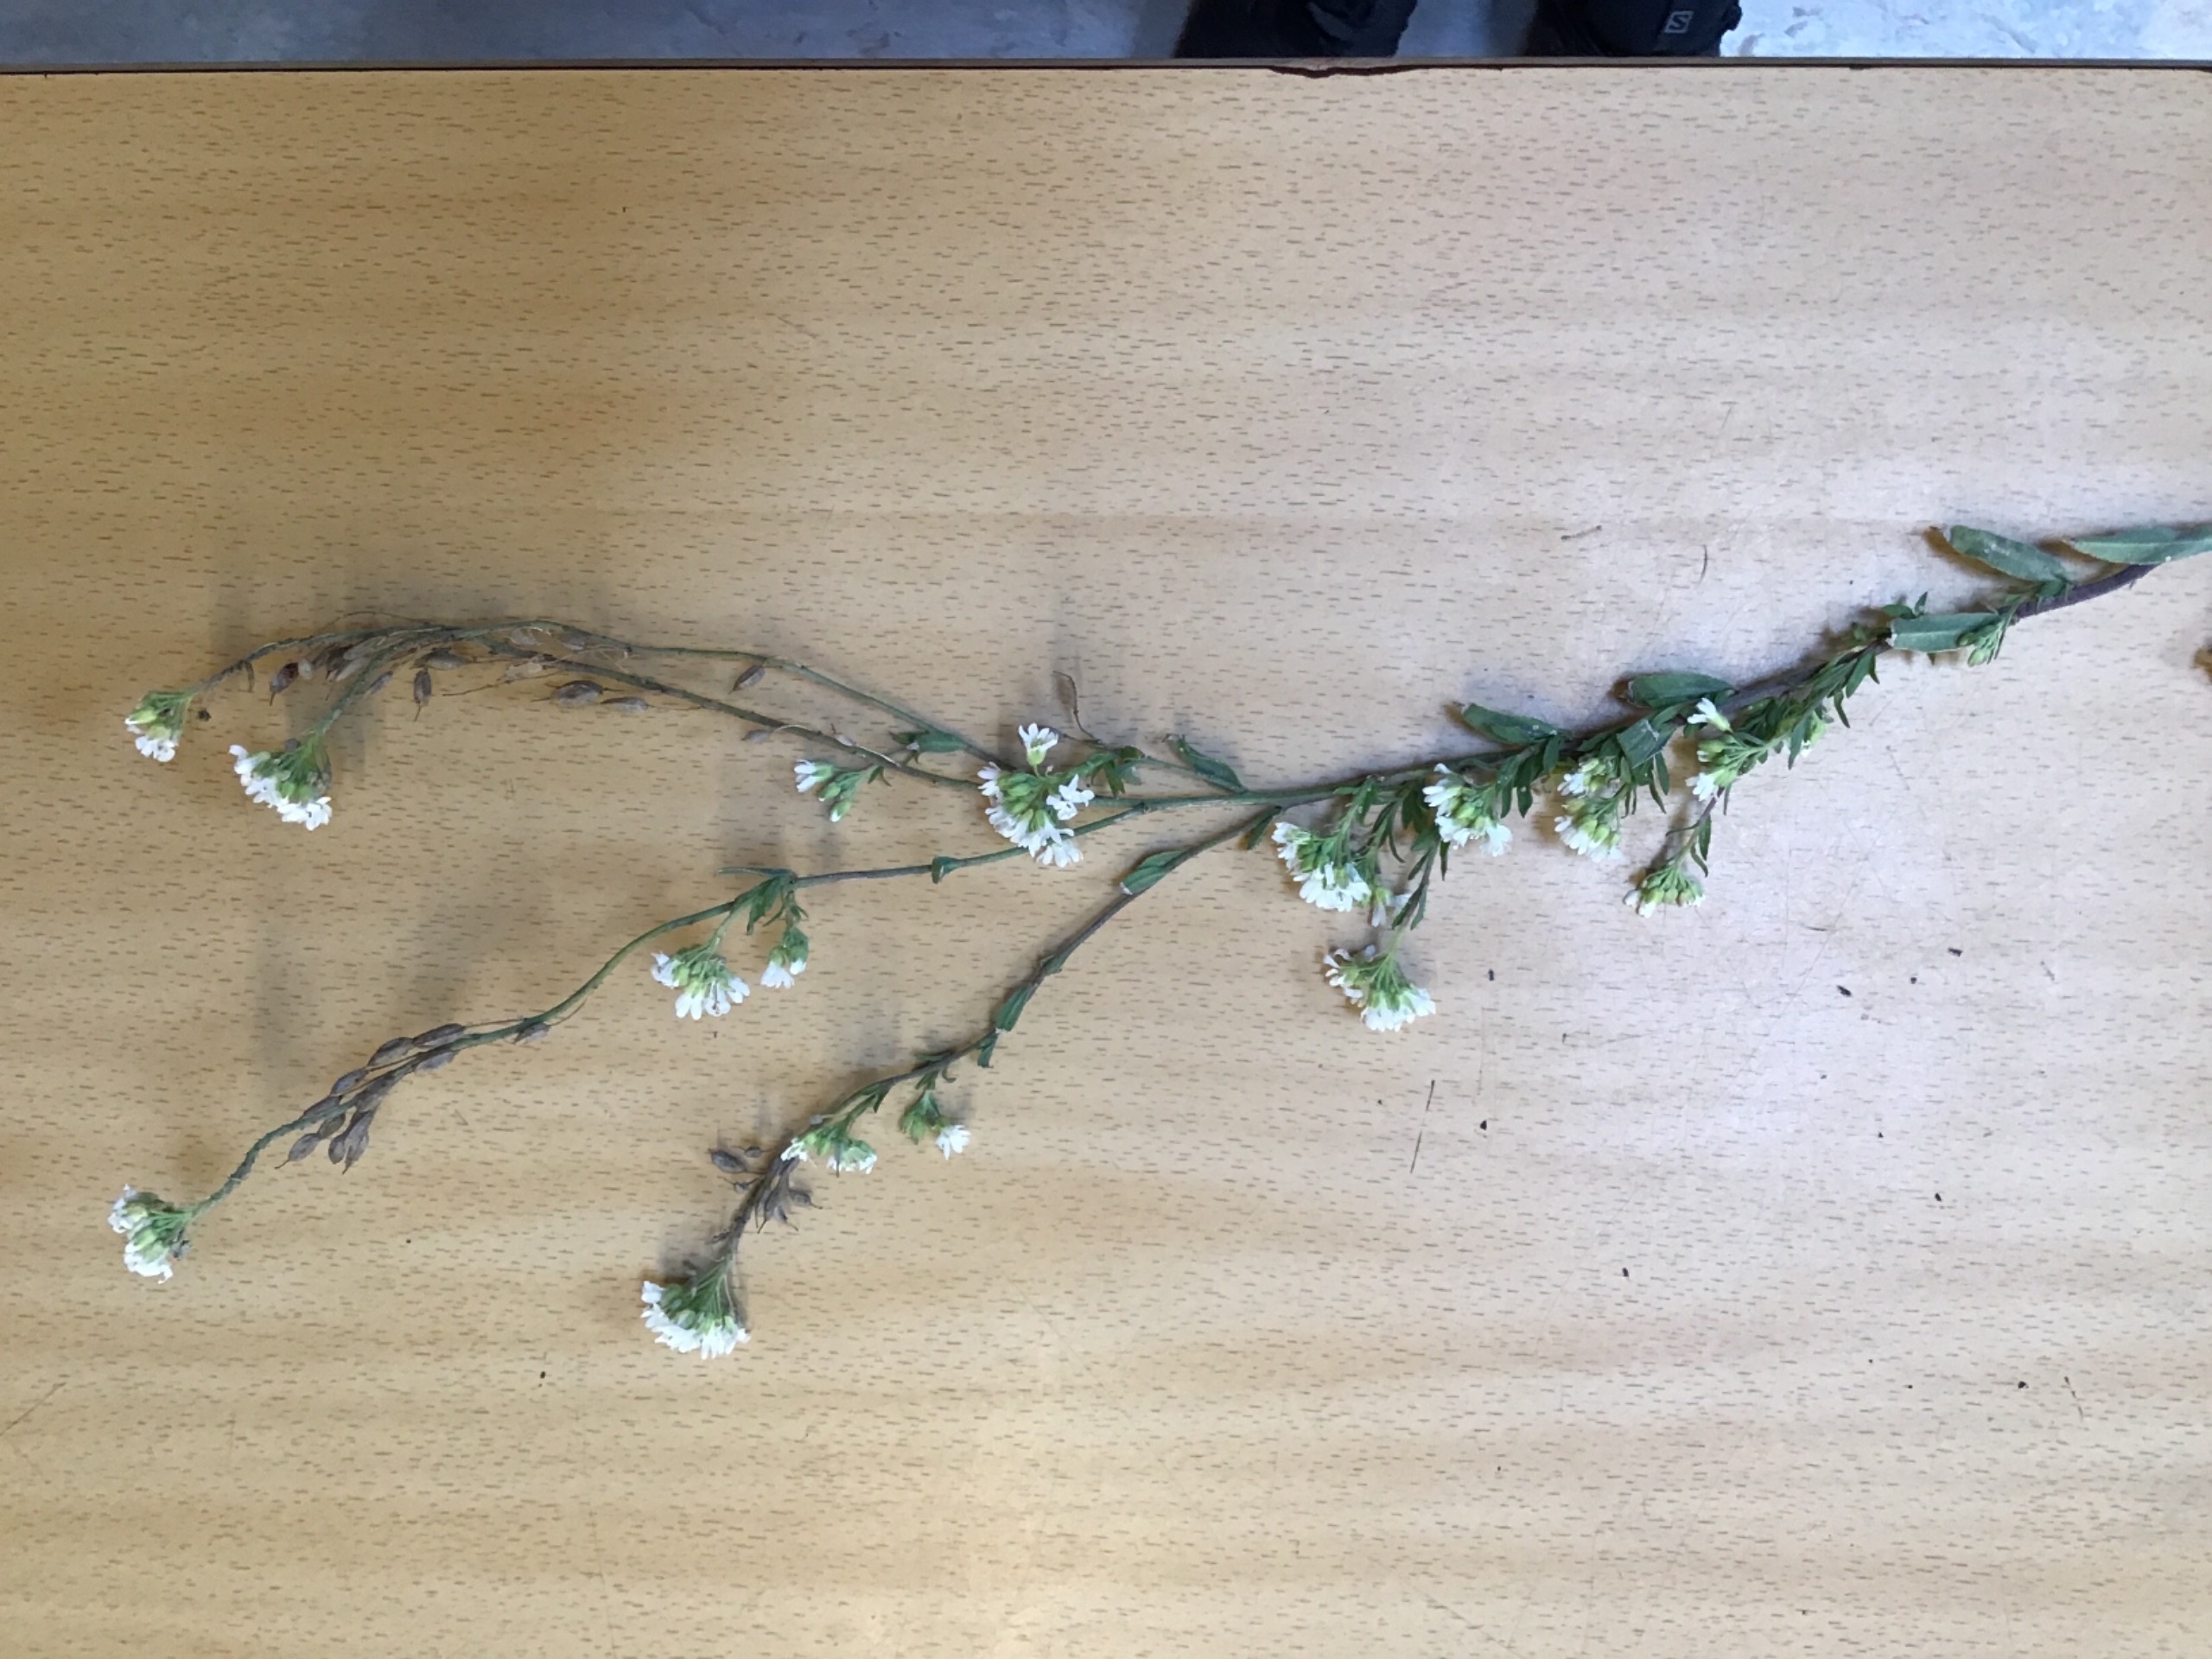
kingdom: Plantae
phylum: Tracheophyta
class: Magnoliopsida
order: Brassicales
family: Brassicaceae
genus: Berteroa
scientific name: Berteroa incana
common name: Kløvplade
